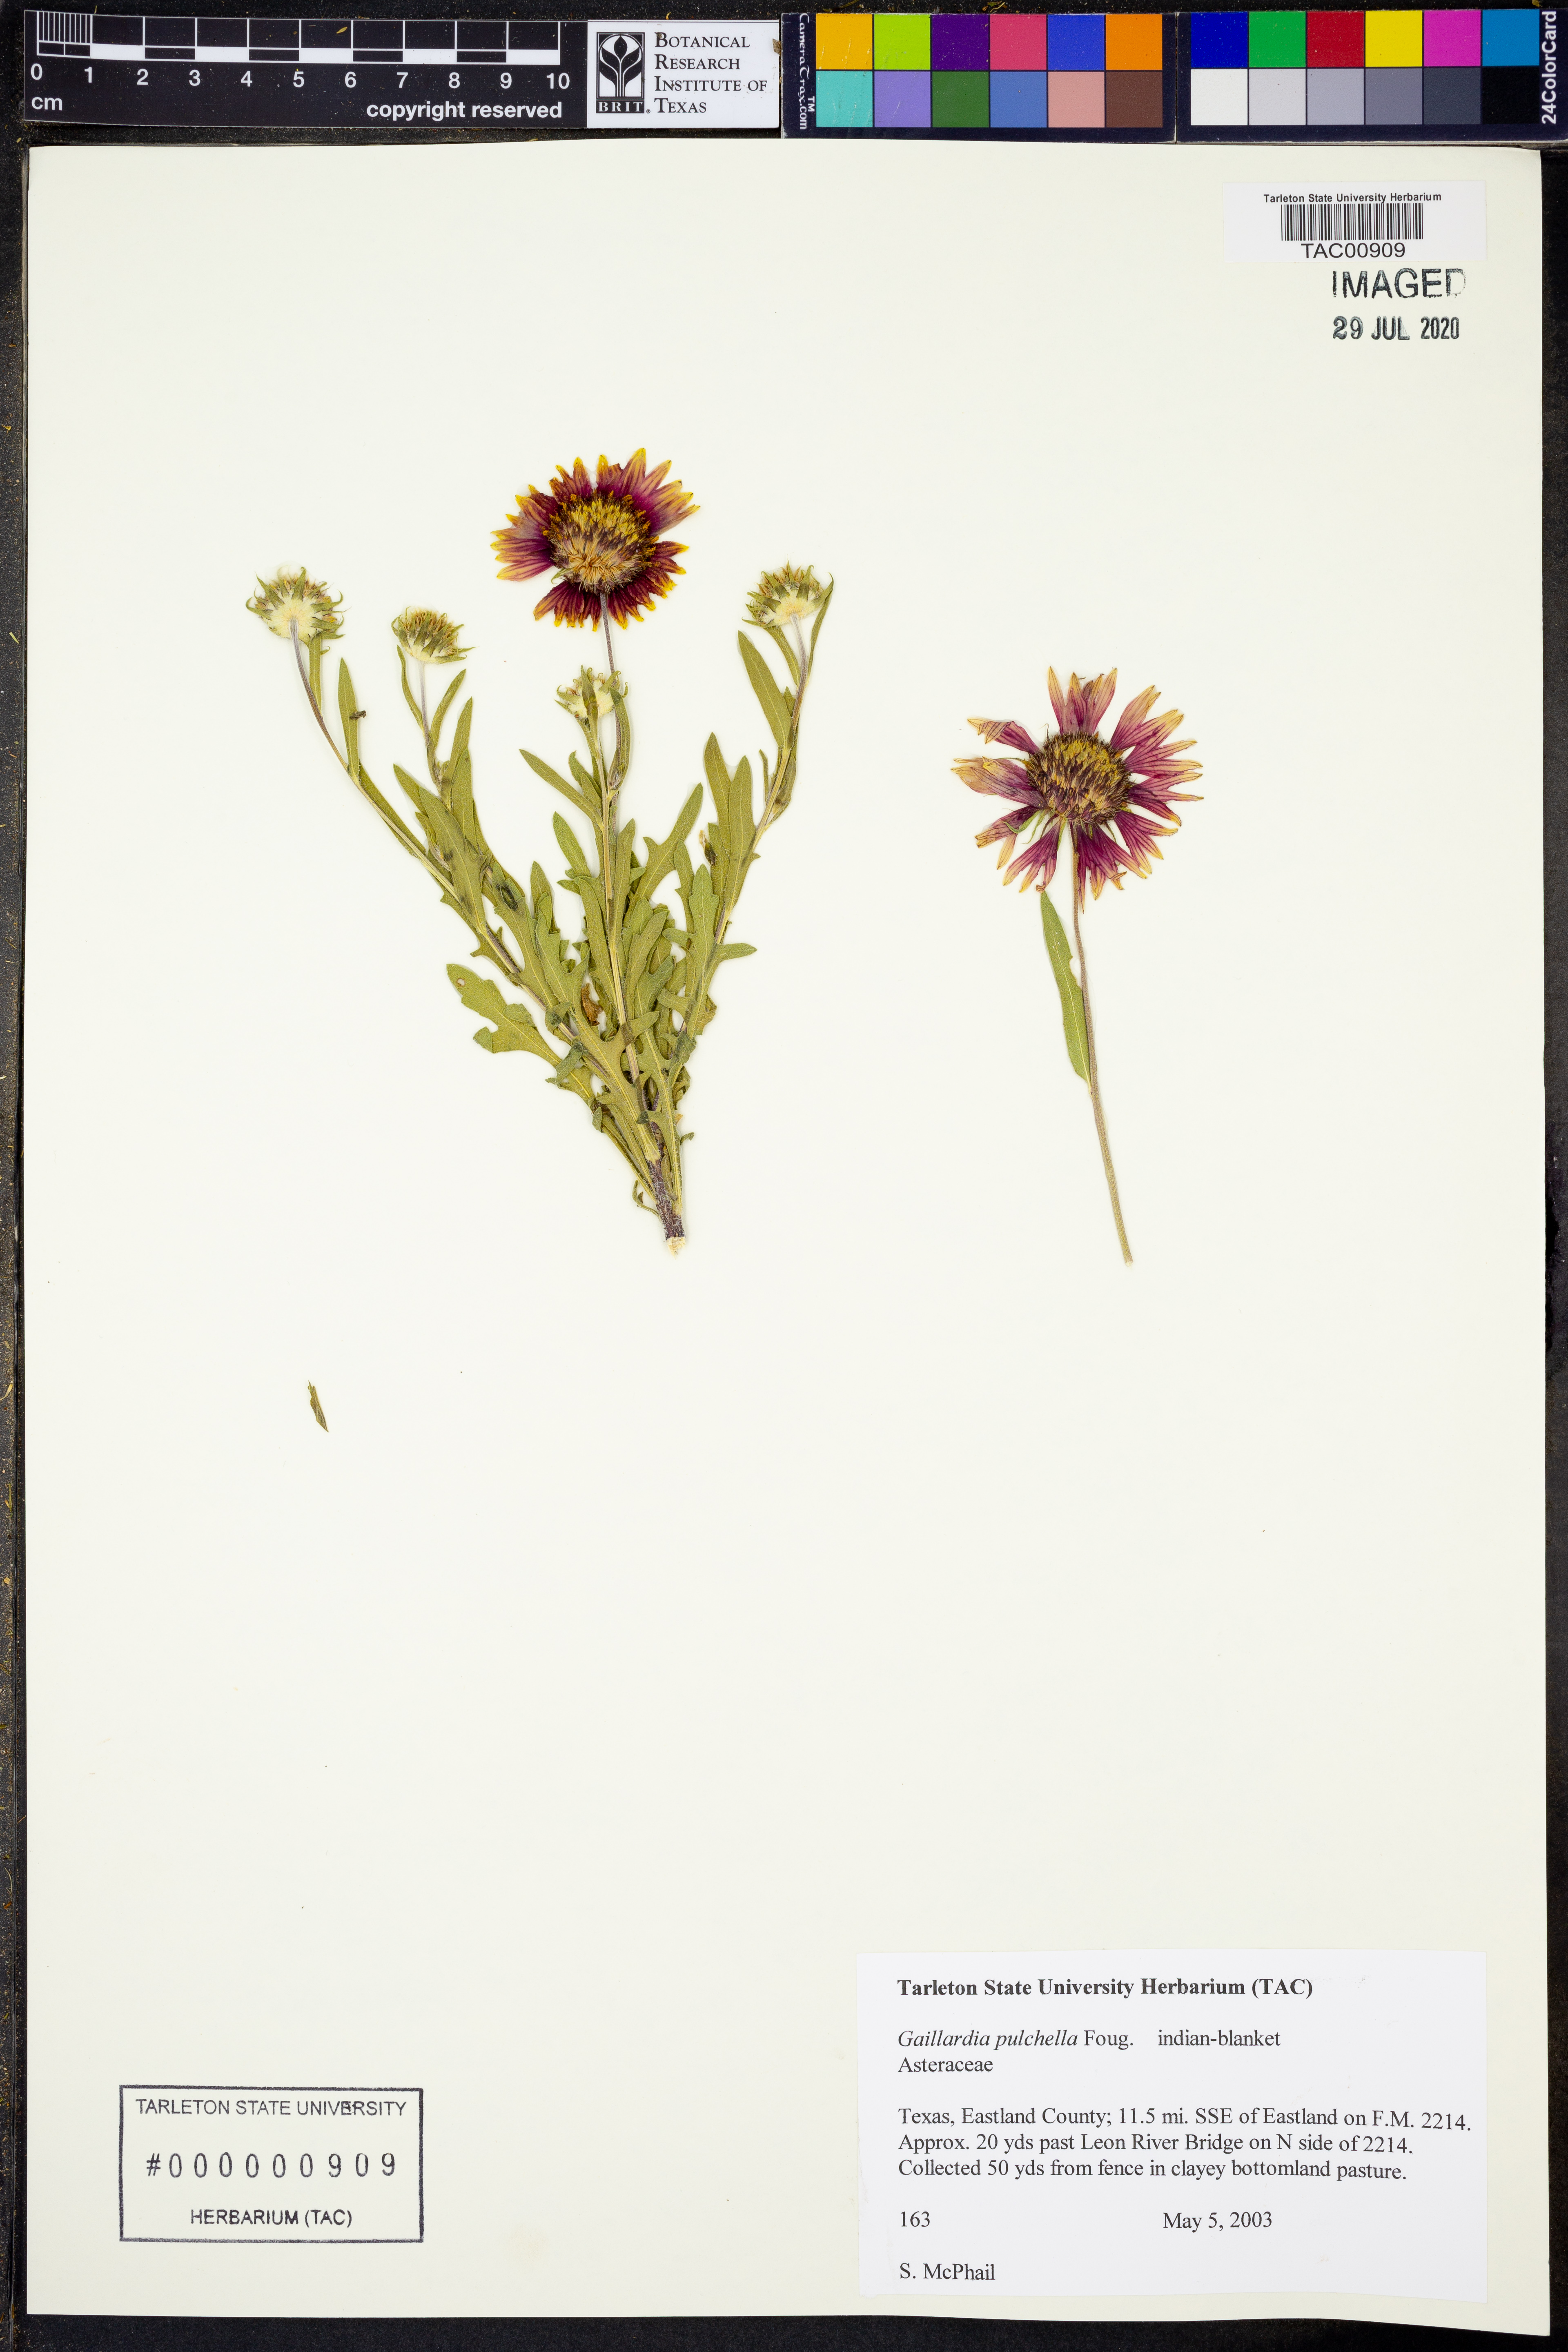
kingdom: Plantae
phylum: Tracheophyta
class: Magnoliopsida
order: Asterales
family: Asteraceae
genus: Gaillardia
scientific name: Gaillardia pulchella
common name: Firewheel
